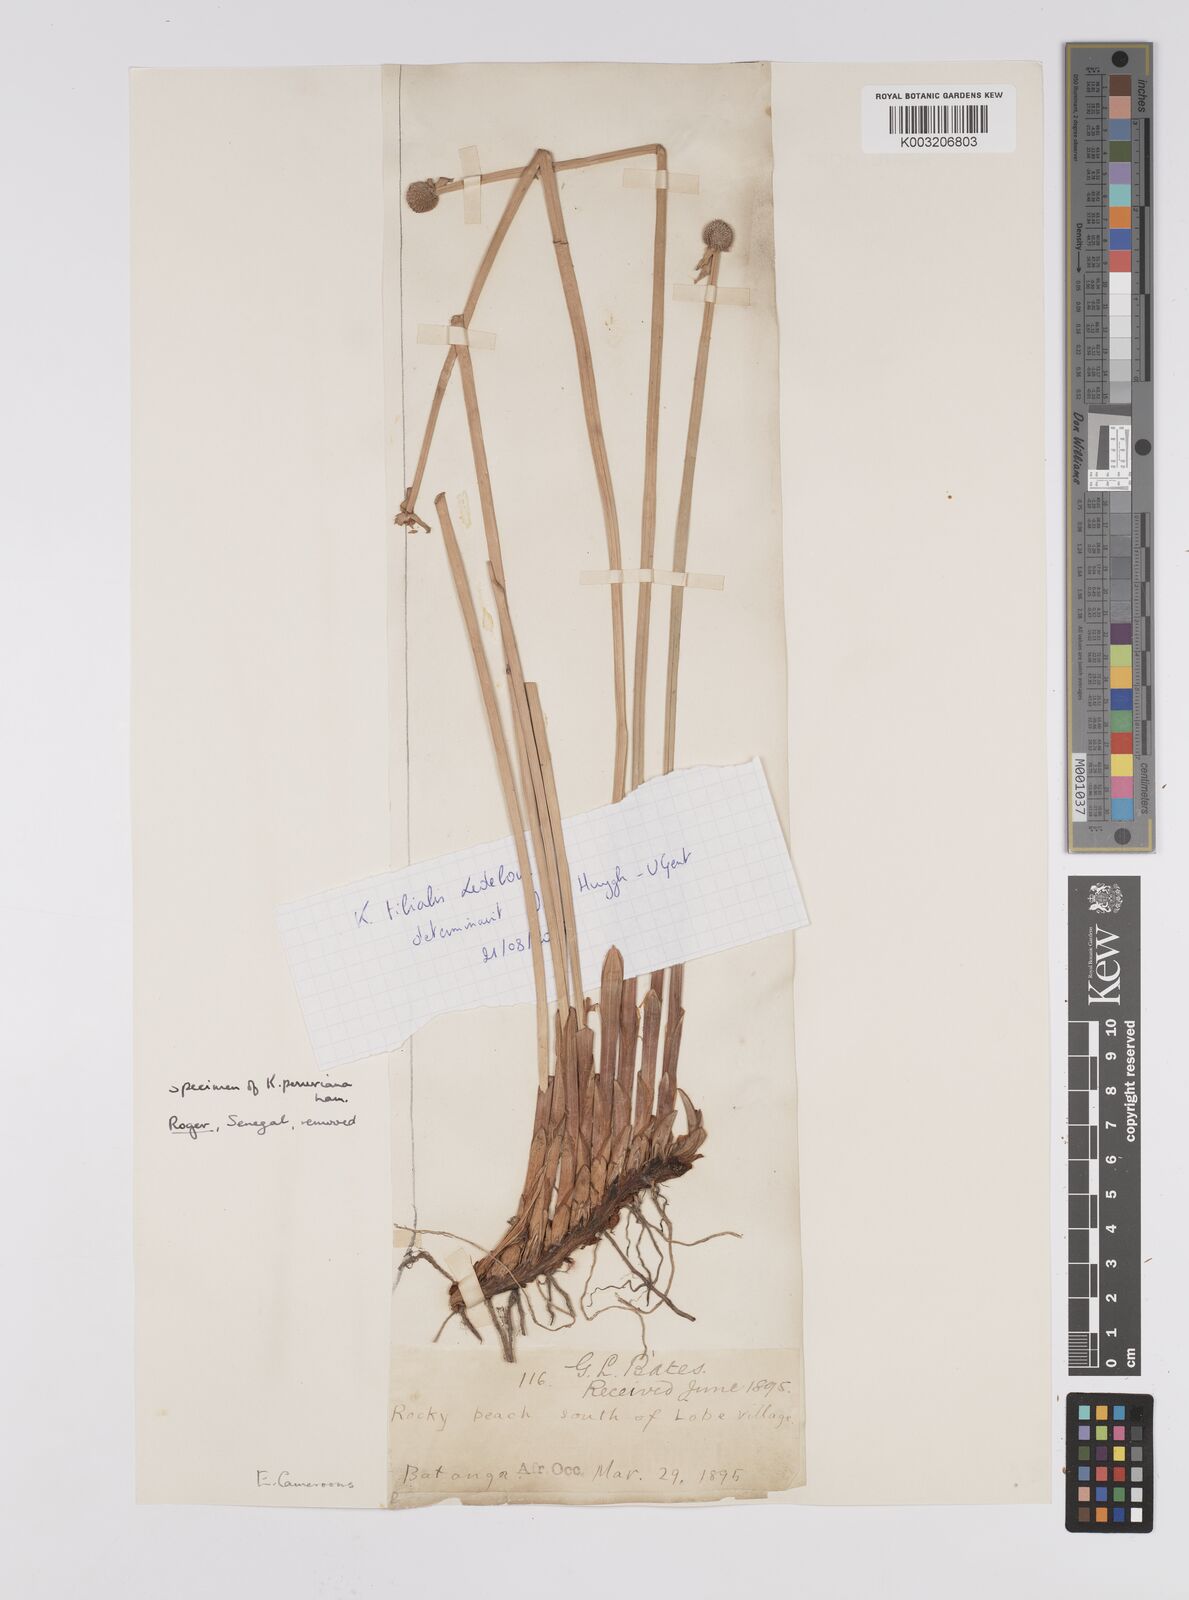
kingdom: Plantae
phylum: Tracheophyta
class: Liliopsida
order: Poales
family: Cyperaceae
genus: Cyperus
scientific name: Cyperus
